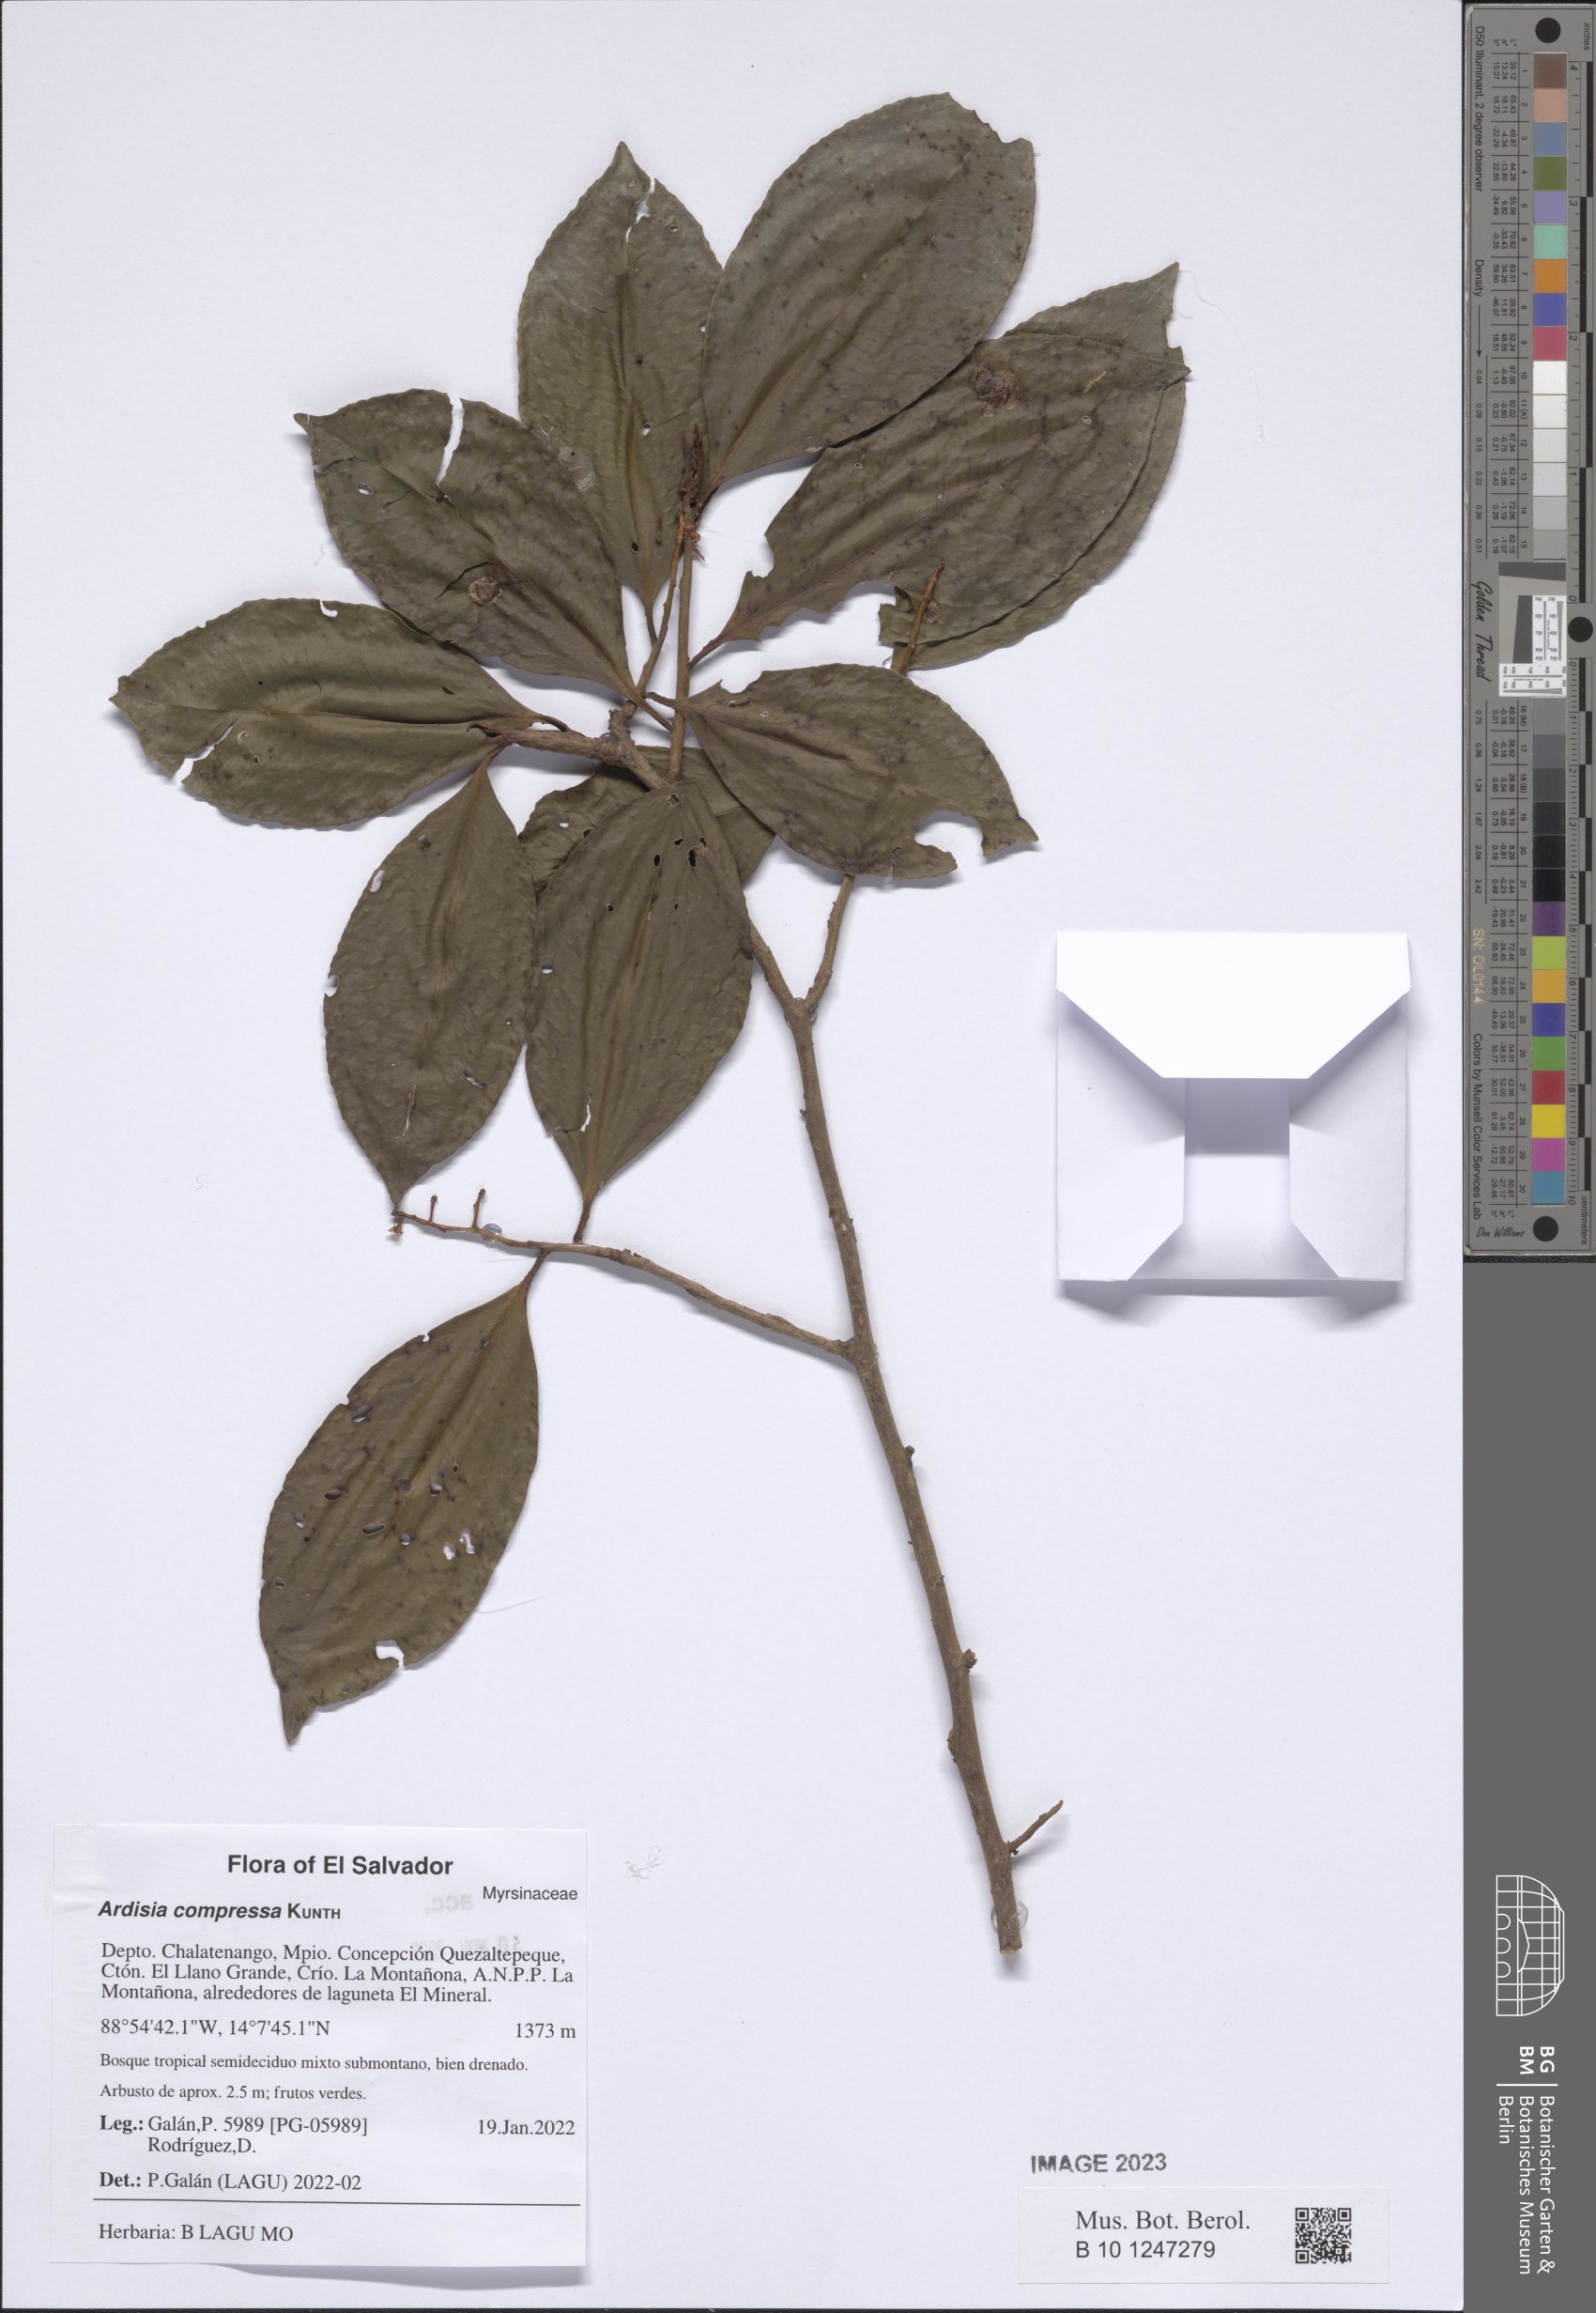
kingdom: Plantae
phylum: Tracheophyta
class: Magnoliopsida
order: Ericales
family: Primulaceae
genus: Ardisia
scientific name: Ardisia compressa
